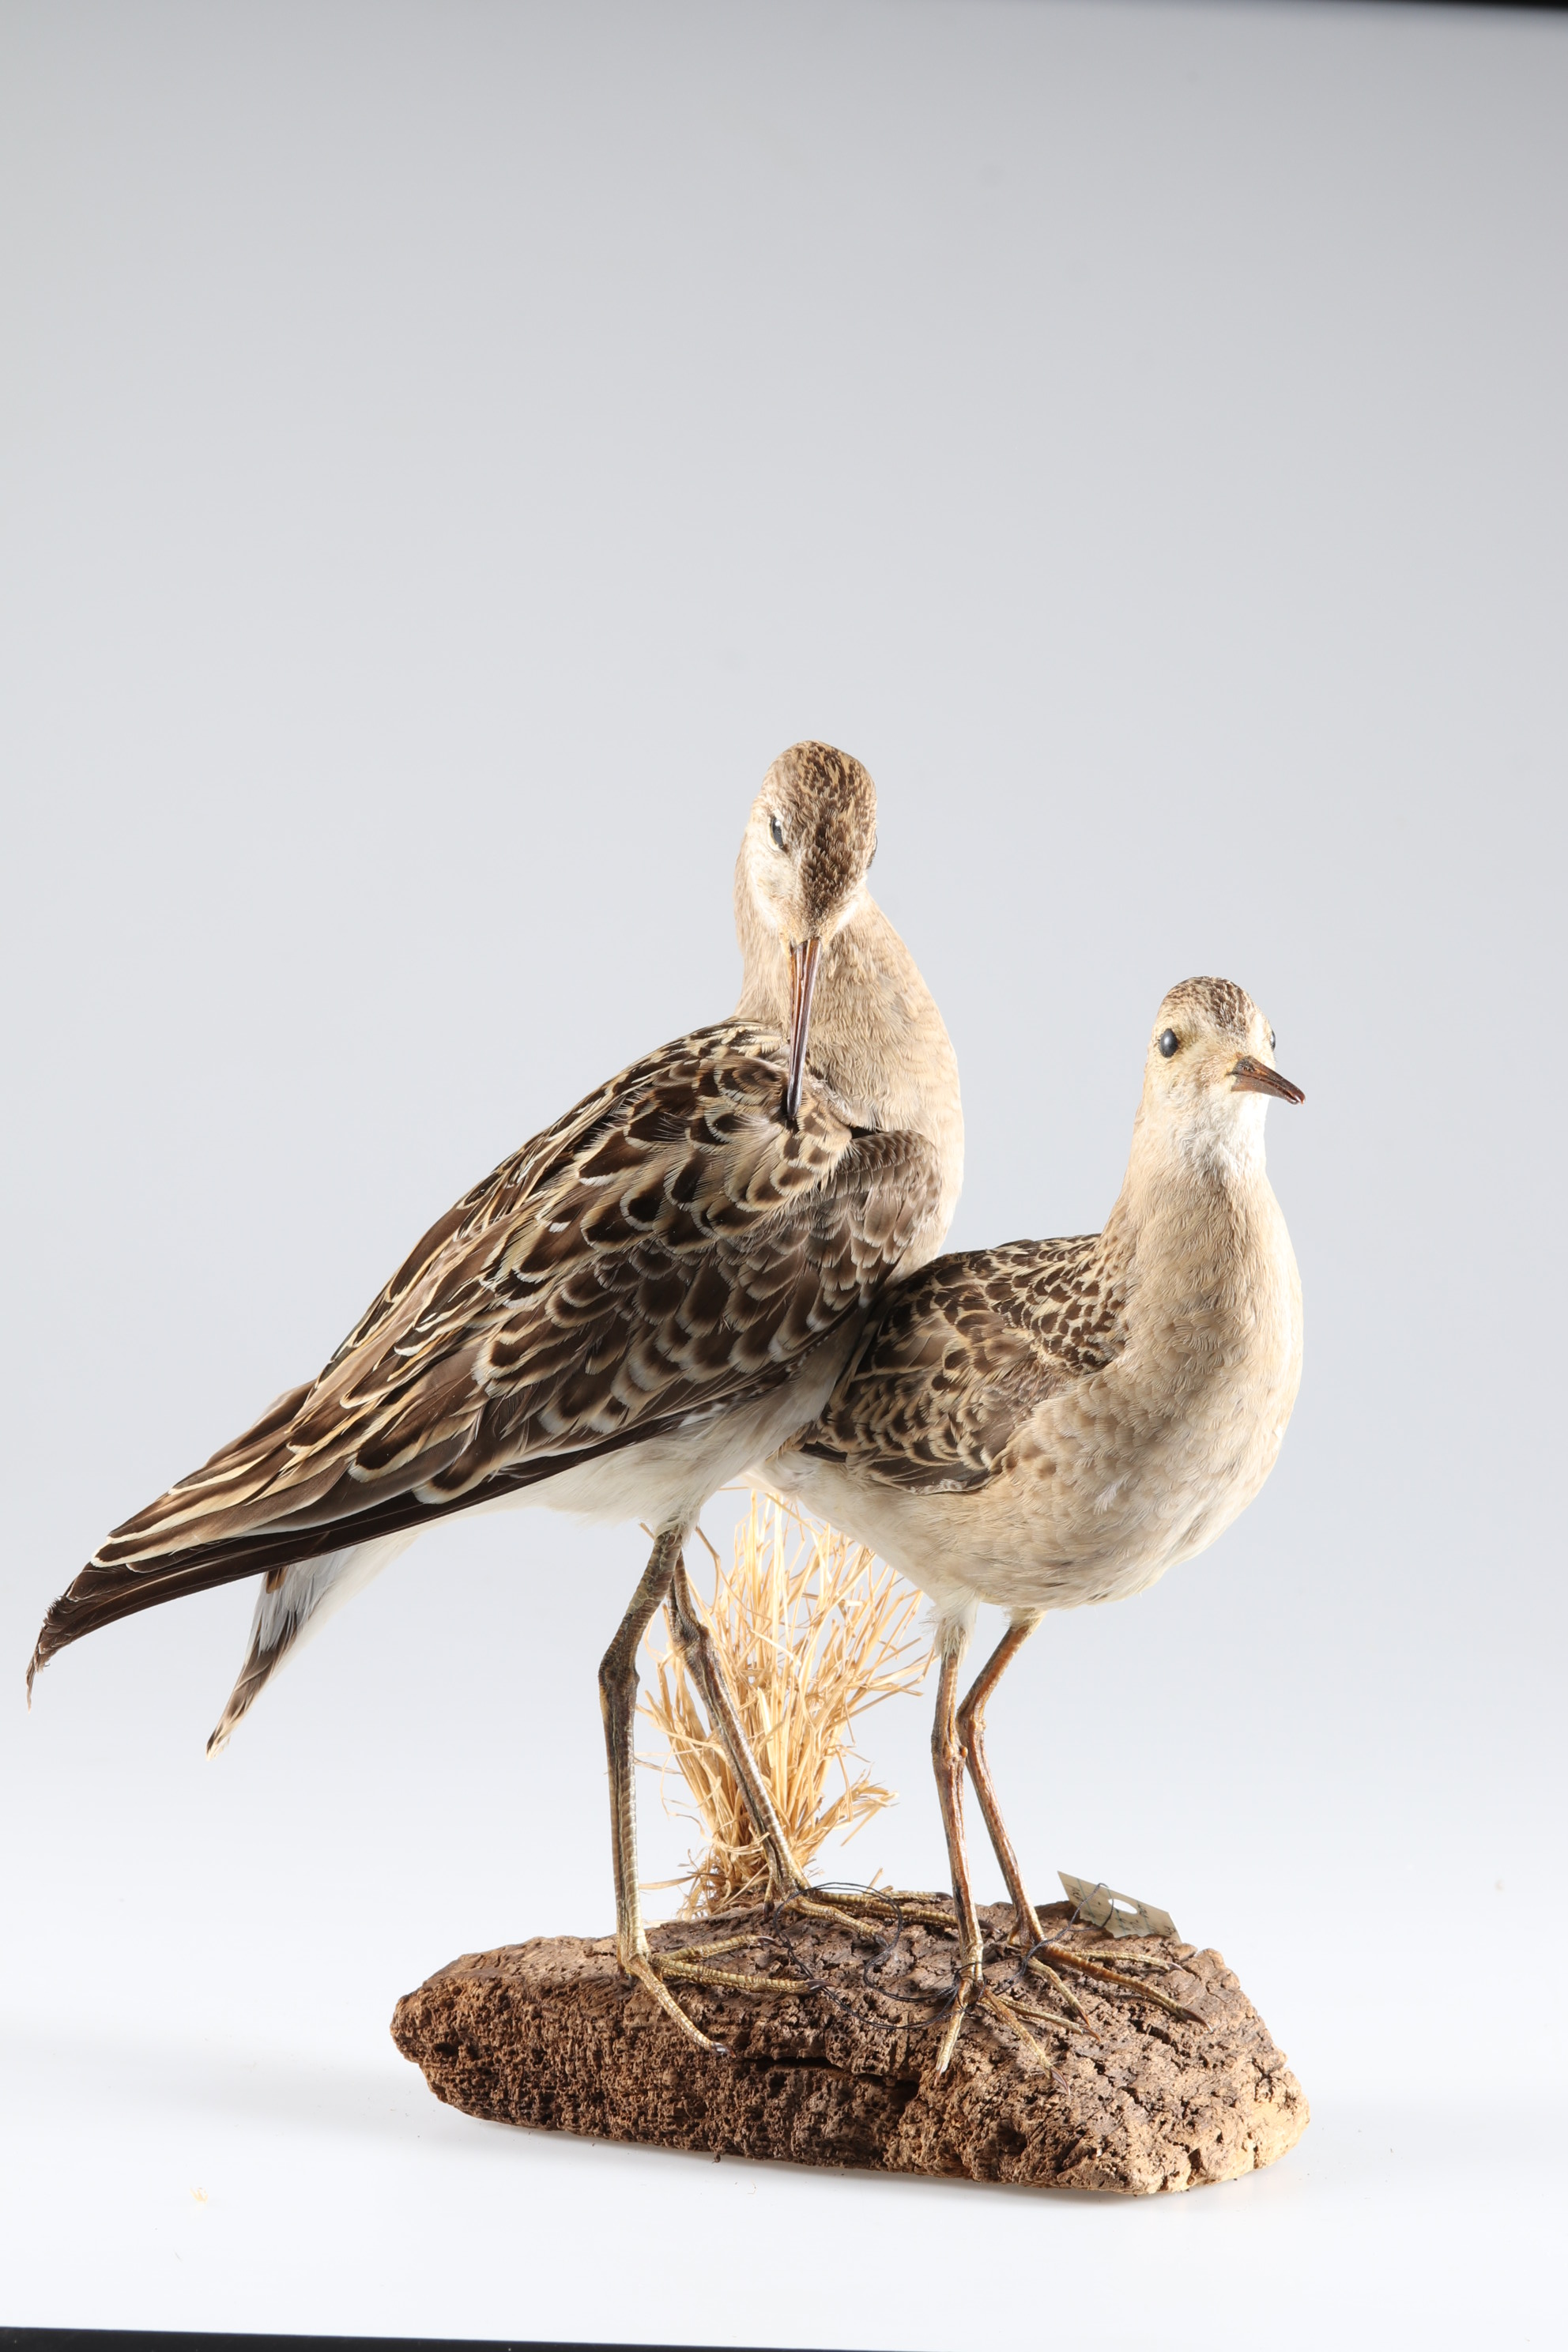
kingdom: Animalia
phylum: Chordata
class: Aves
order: Charadriiformes
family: Scolopacidae
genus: Calidris
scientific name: Calidris pugnax
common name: Ruff
